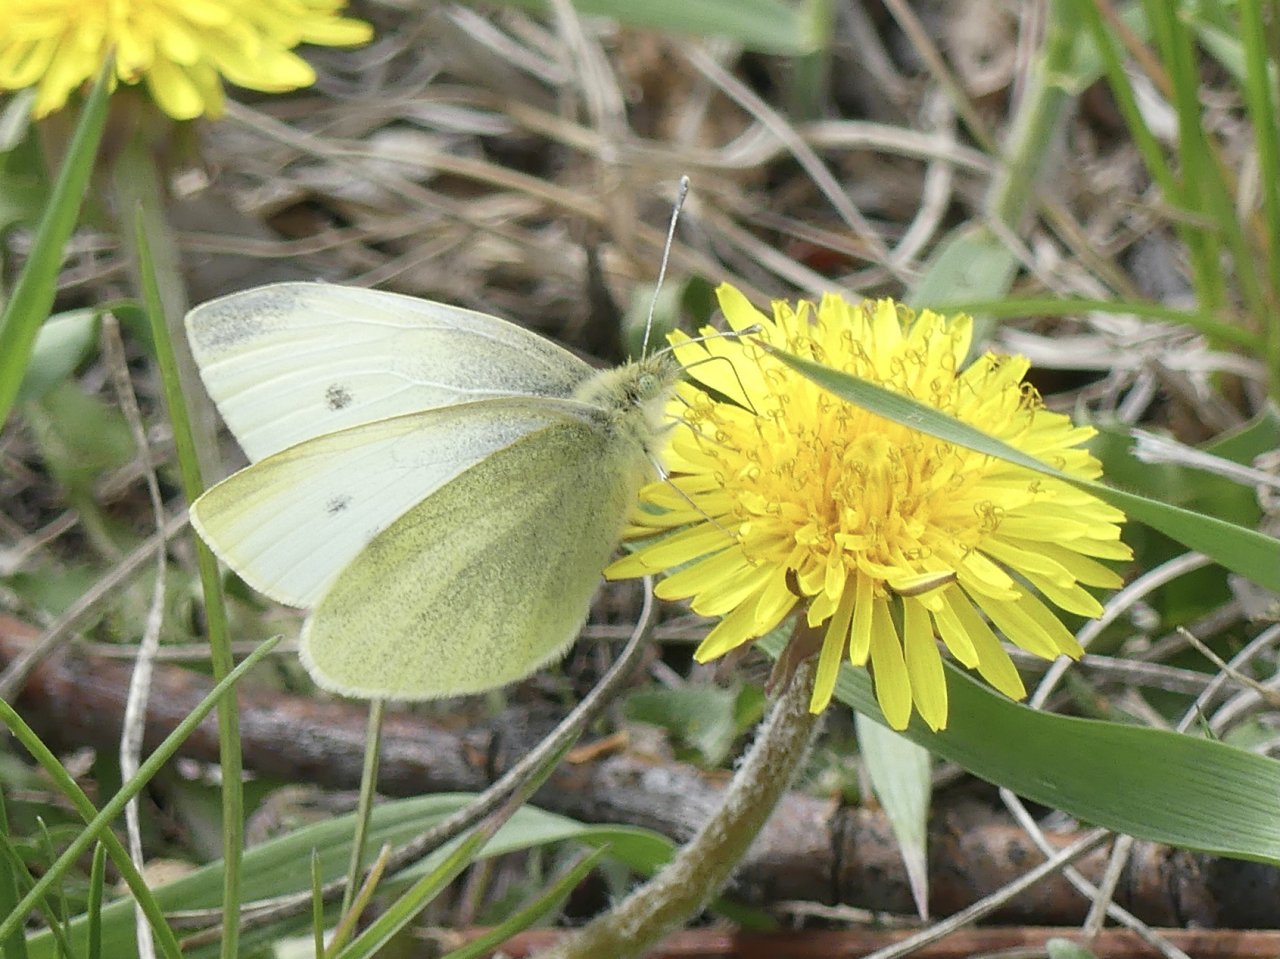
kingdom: Animalia
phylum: Arthropoda
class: Insecta
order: Lepidoptera
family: Pieridae
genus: Pieris
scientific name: Pieris rapae
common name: Cabbage White
